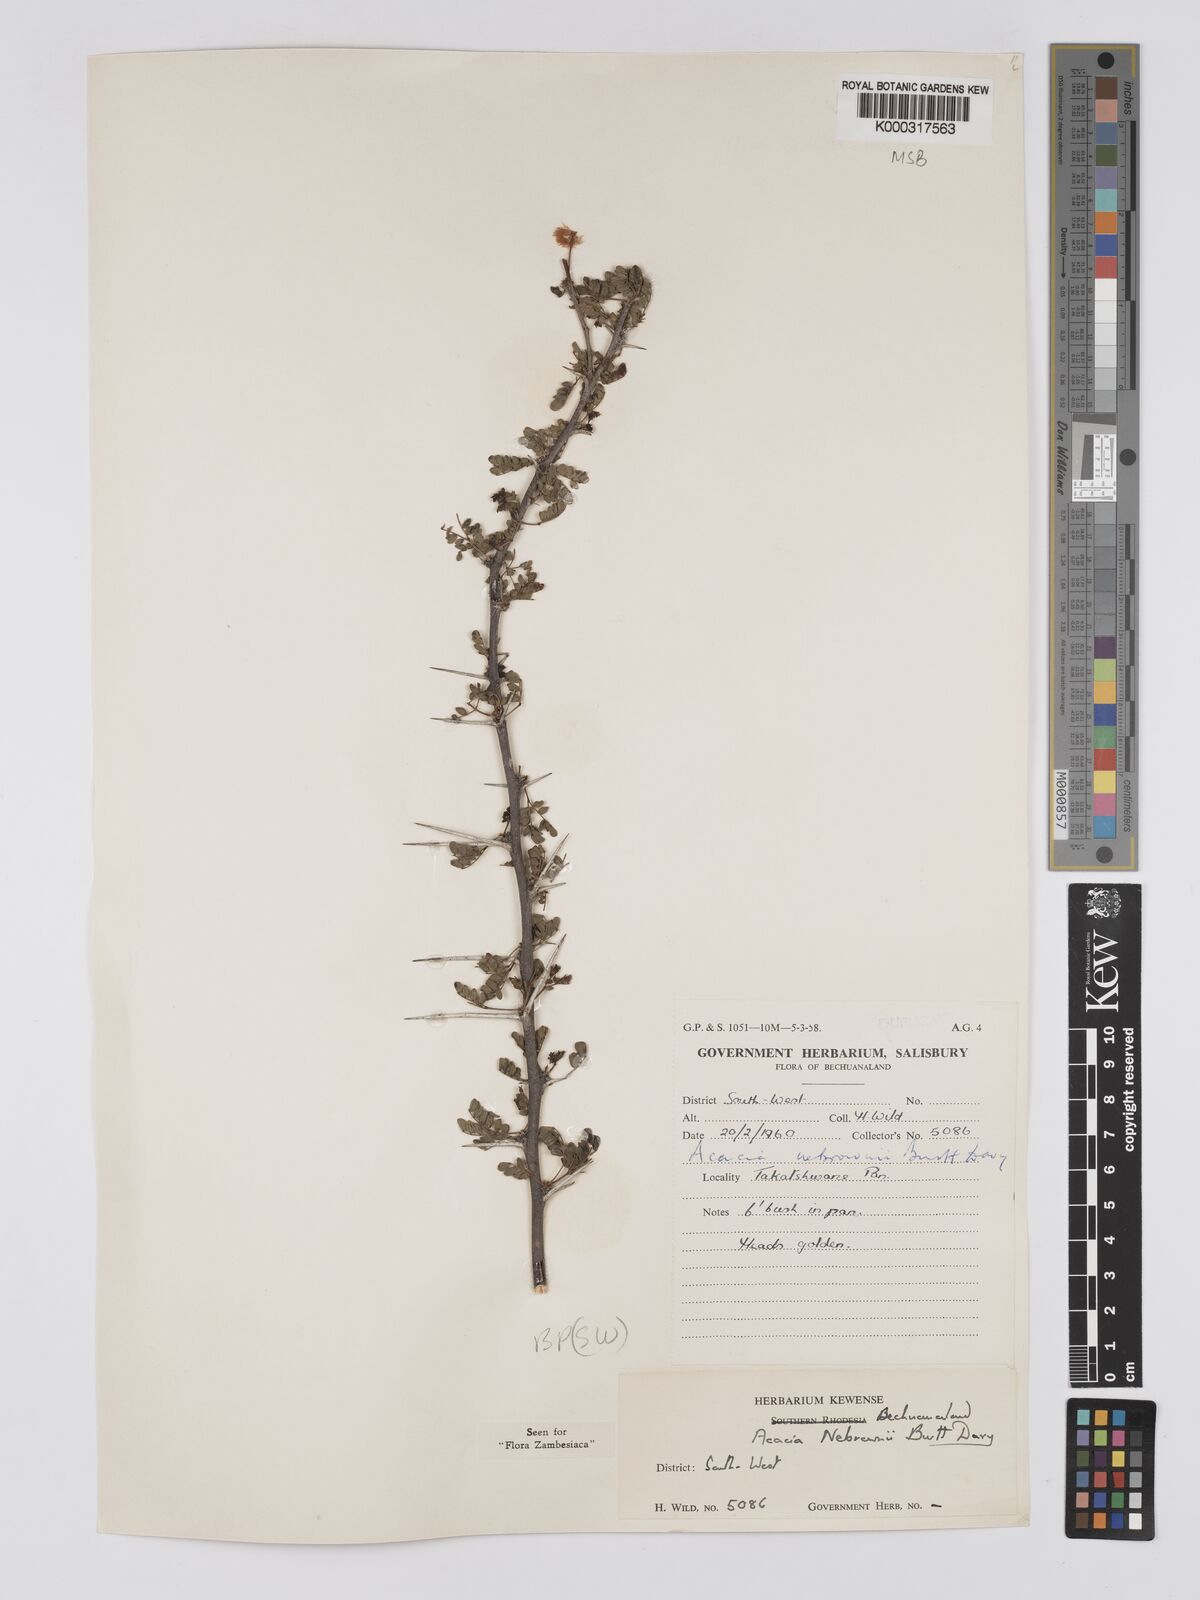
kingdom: Plantae
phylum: Tracheophyta
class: Magnoliopsida
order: Fabales
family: Fabaceae
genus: Vachellia
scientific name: Vachellia nebrownii
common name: Water acacia
